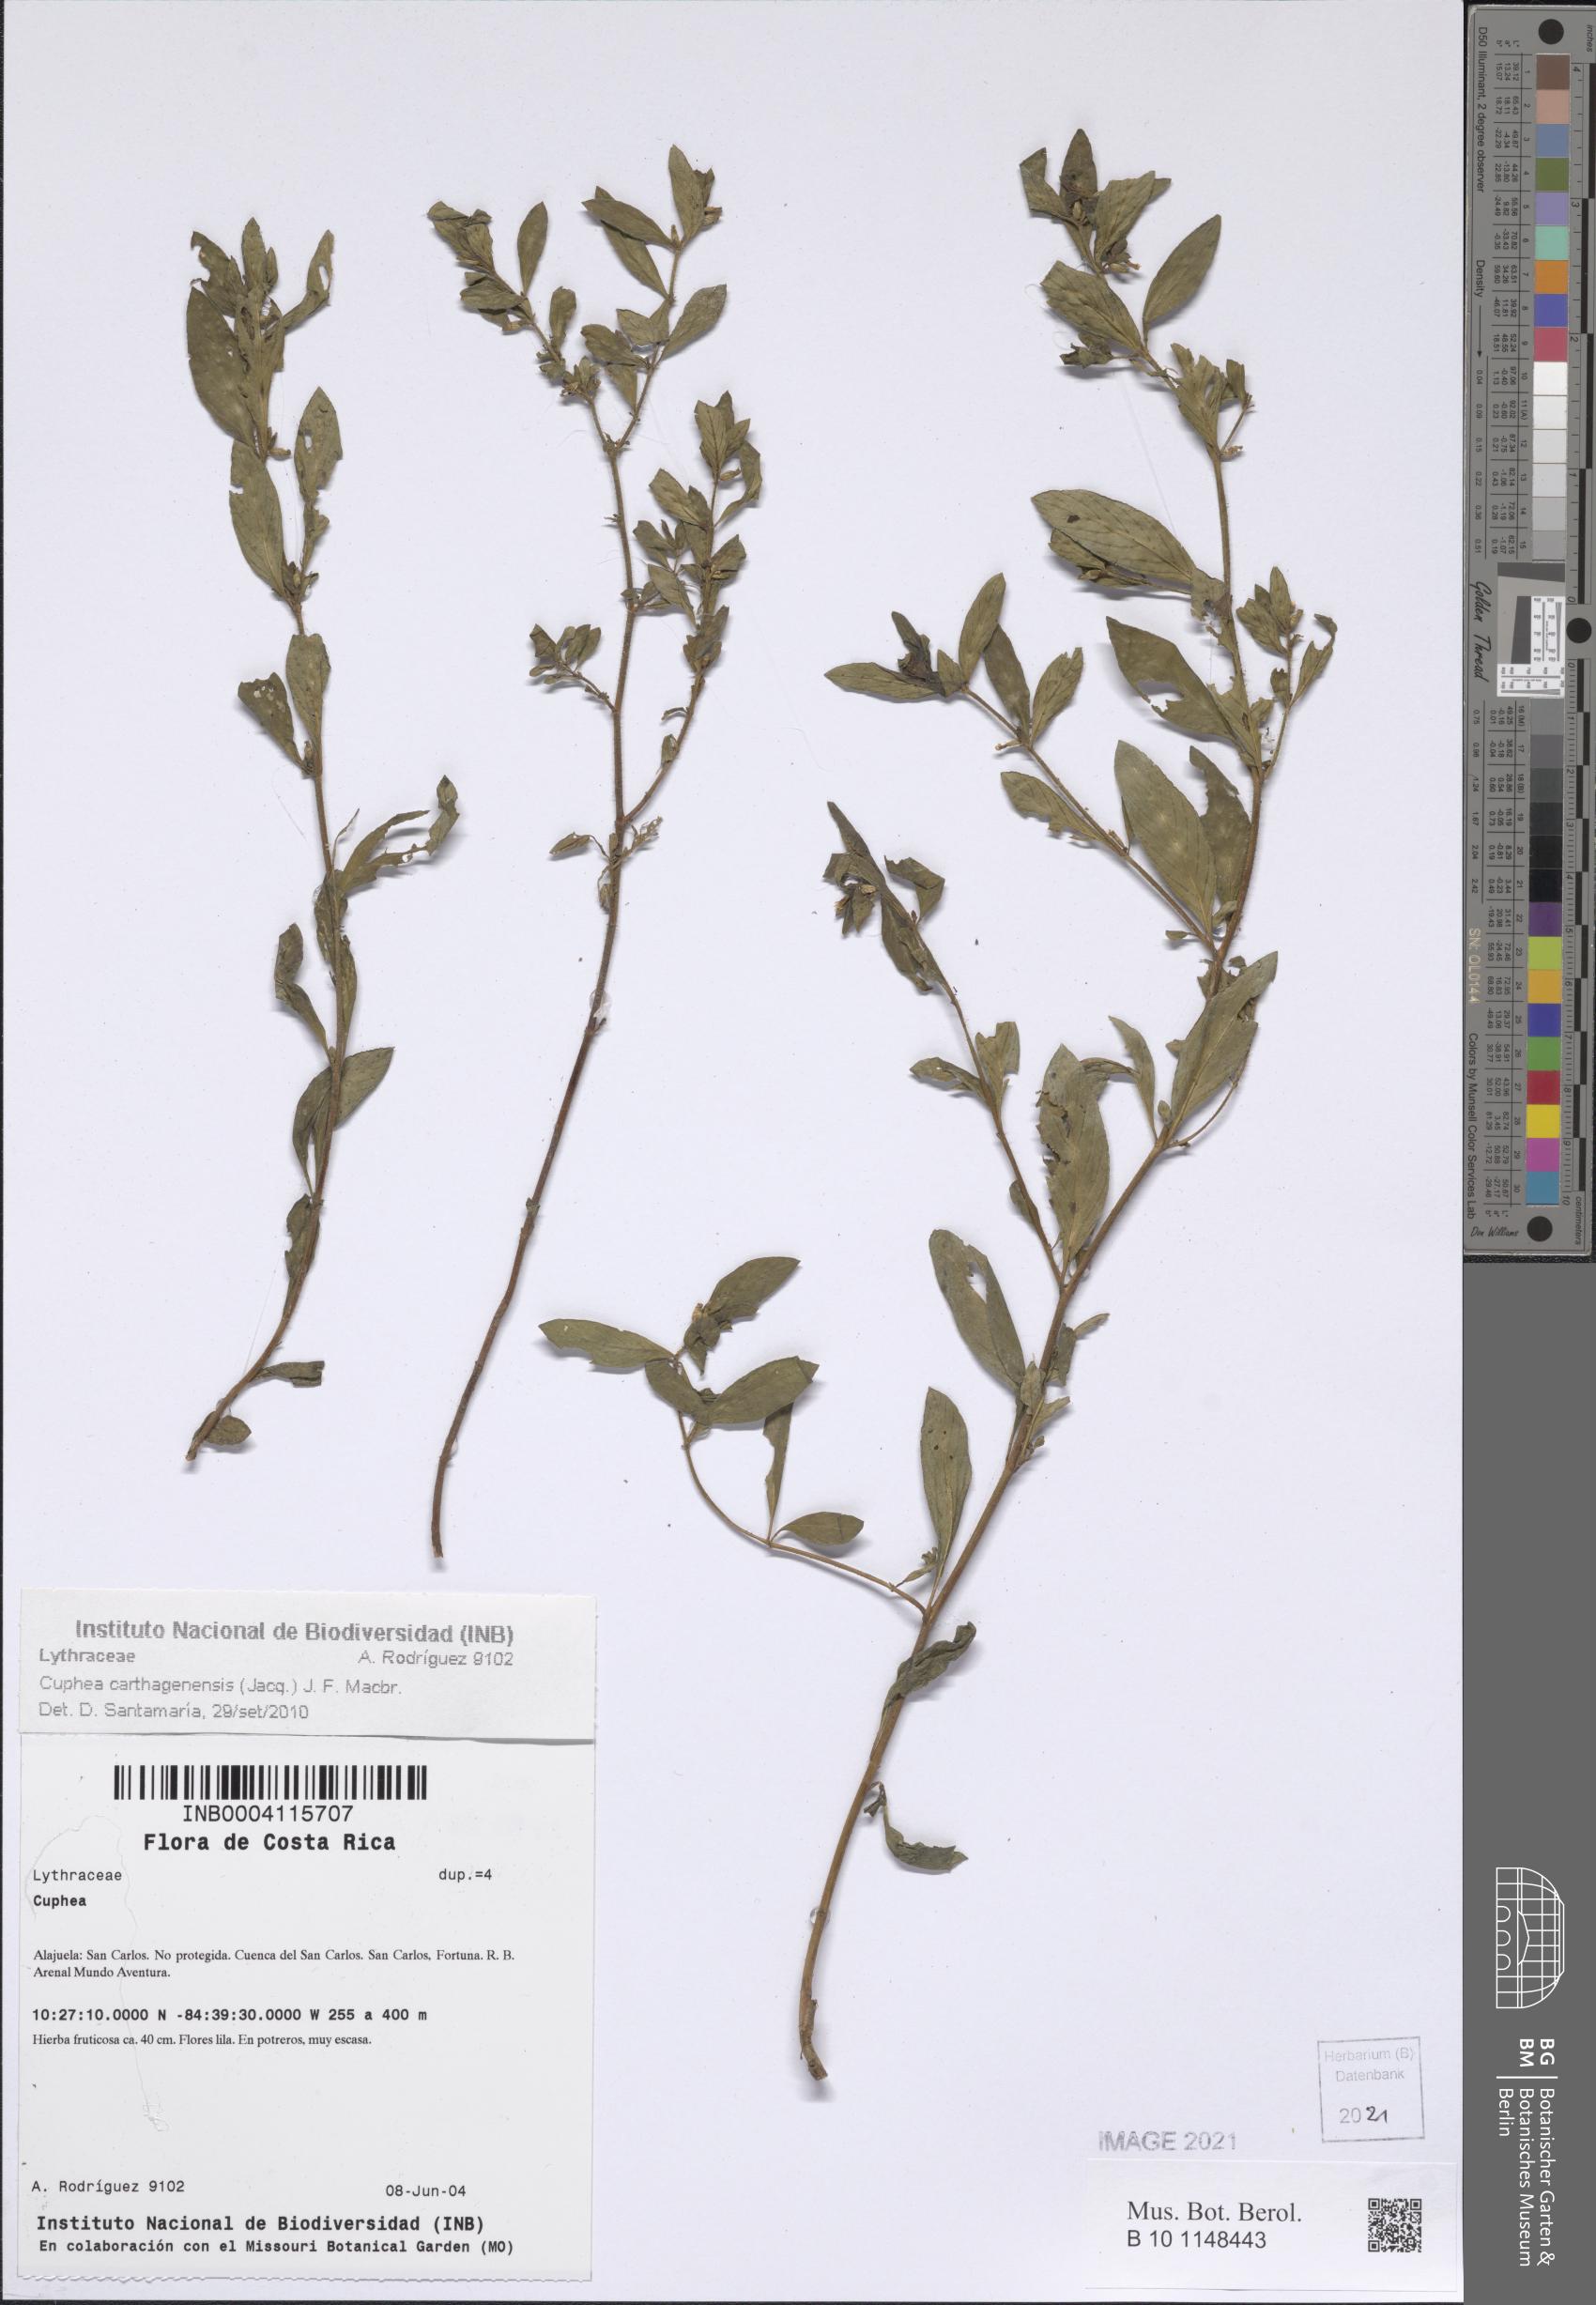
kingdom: Plantae
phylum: Tracheophyta
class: Magnoliopsida
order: Myrtales
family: Lythraceae
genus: Cuphea
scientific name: Cuphea carthagenensis
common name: Colombian waxweed
